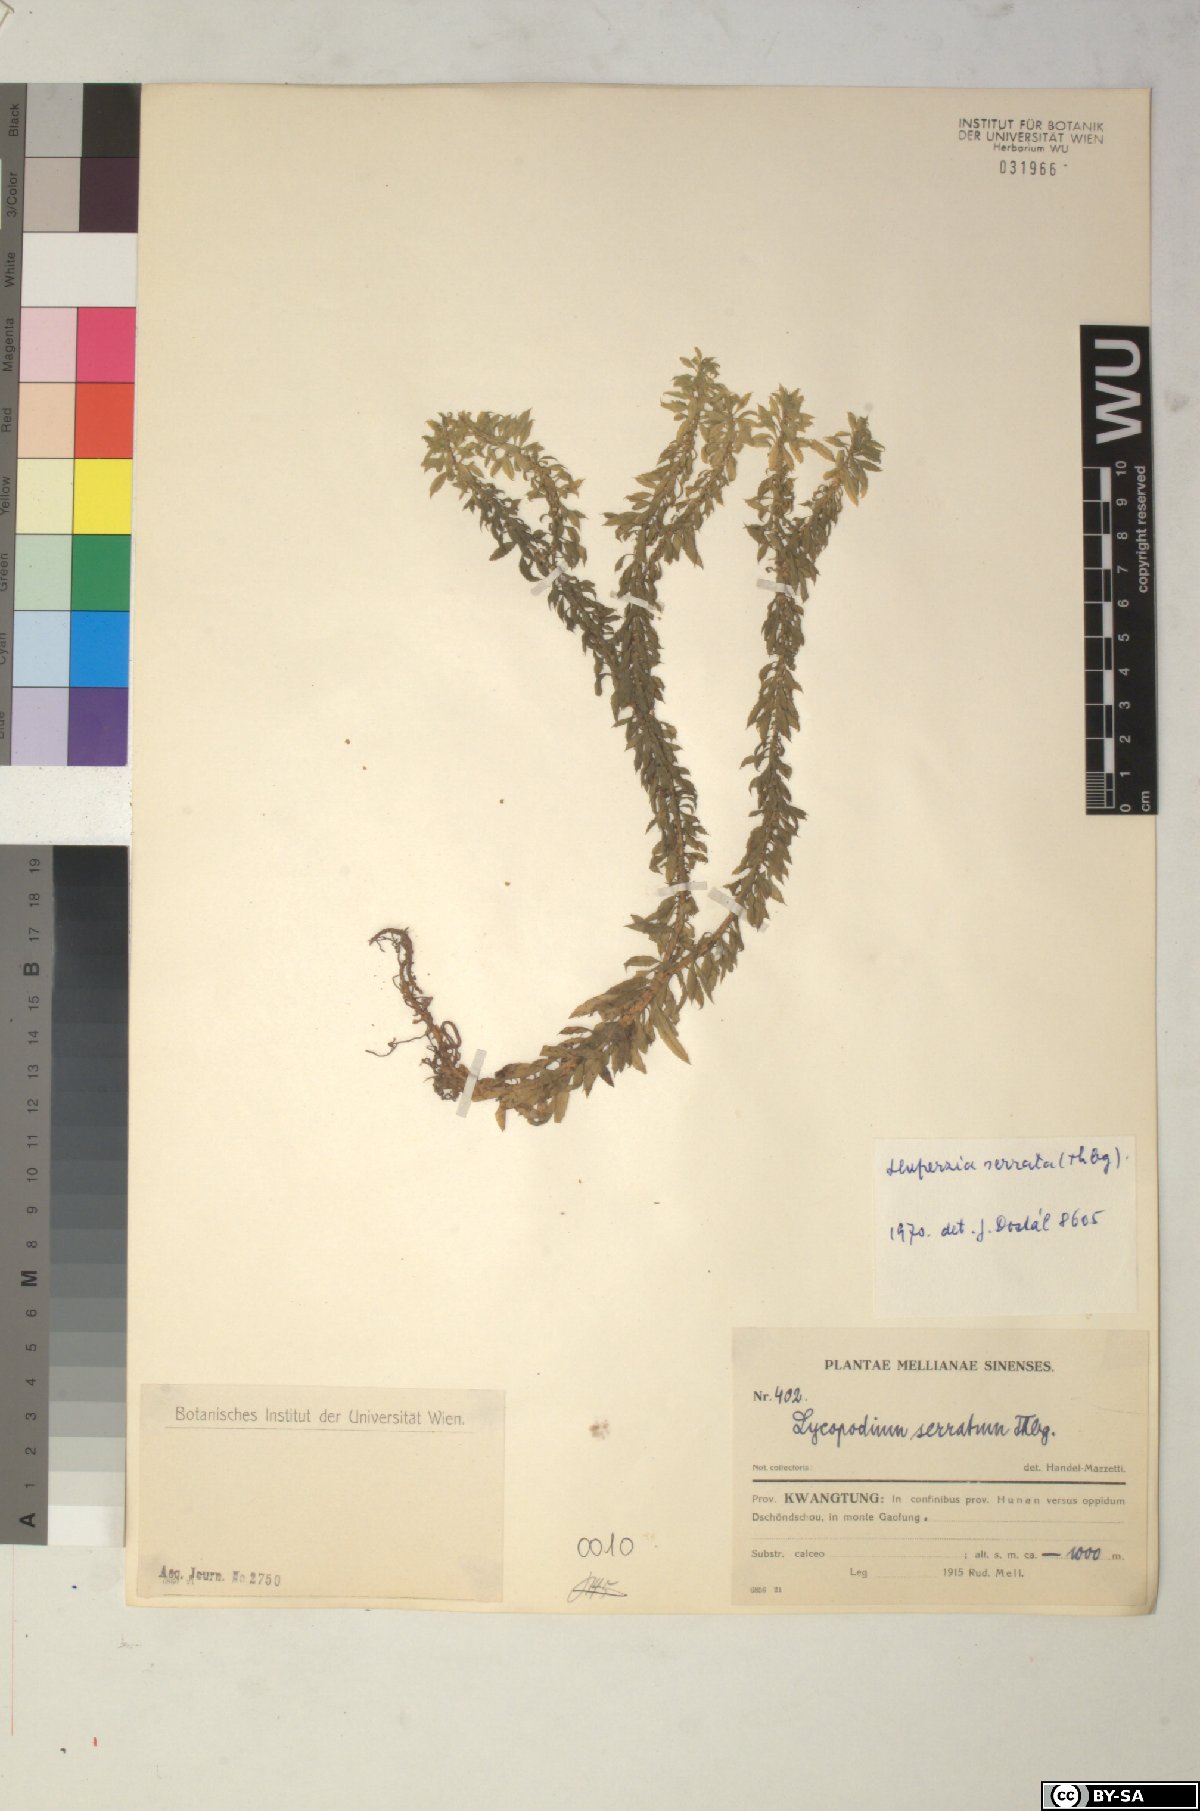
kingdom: Plantae
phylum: Tracheophyta
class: Lycopodiopsida
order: Lycopodiales
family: Lycopodiaceae
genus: Huperzia
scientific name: Huperzia serrata
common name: Toothed club-moss
